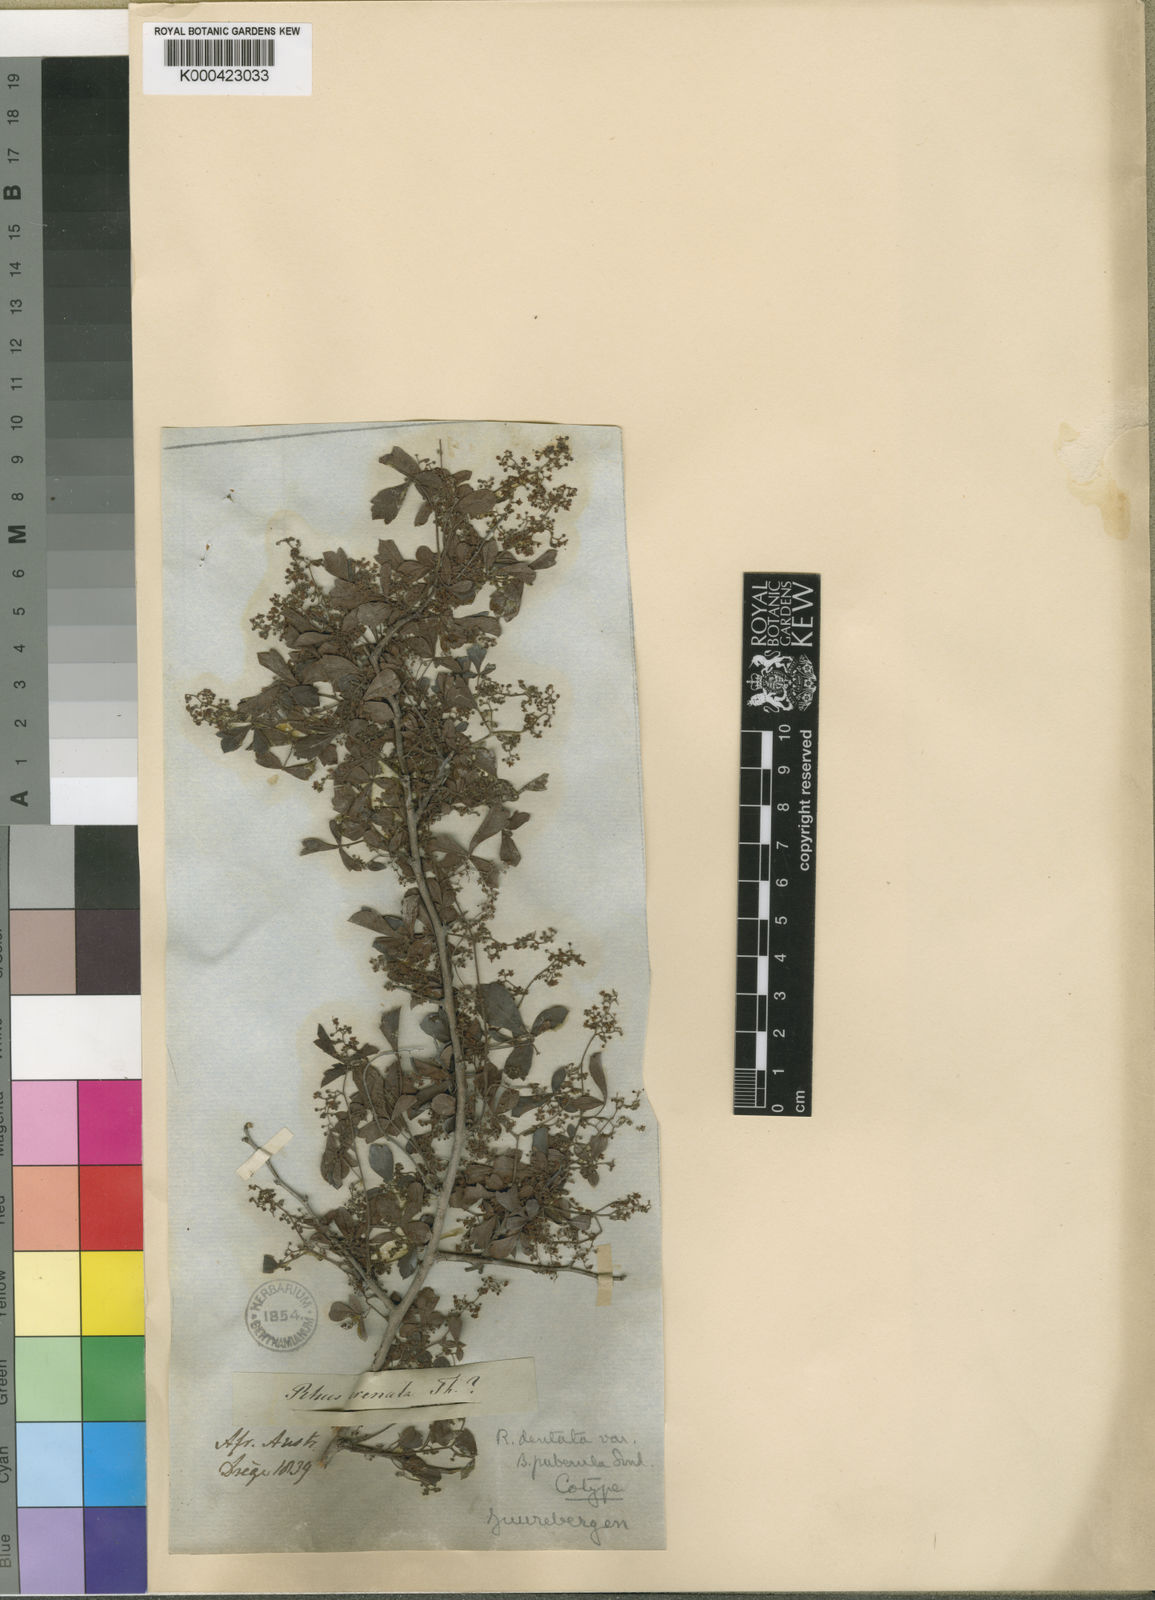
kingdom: Plantae
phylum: Tracheophyta
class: Magnoliopsida
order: Sapindales
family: Anacardiaceae
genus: Searsia
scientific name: Searsia dentata
